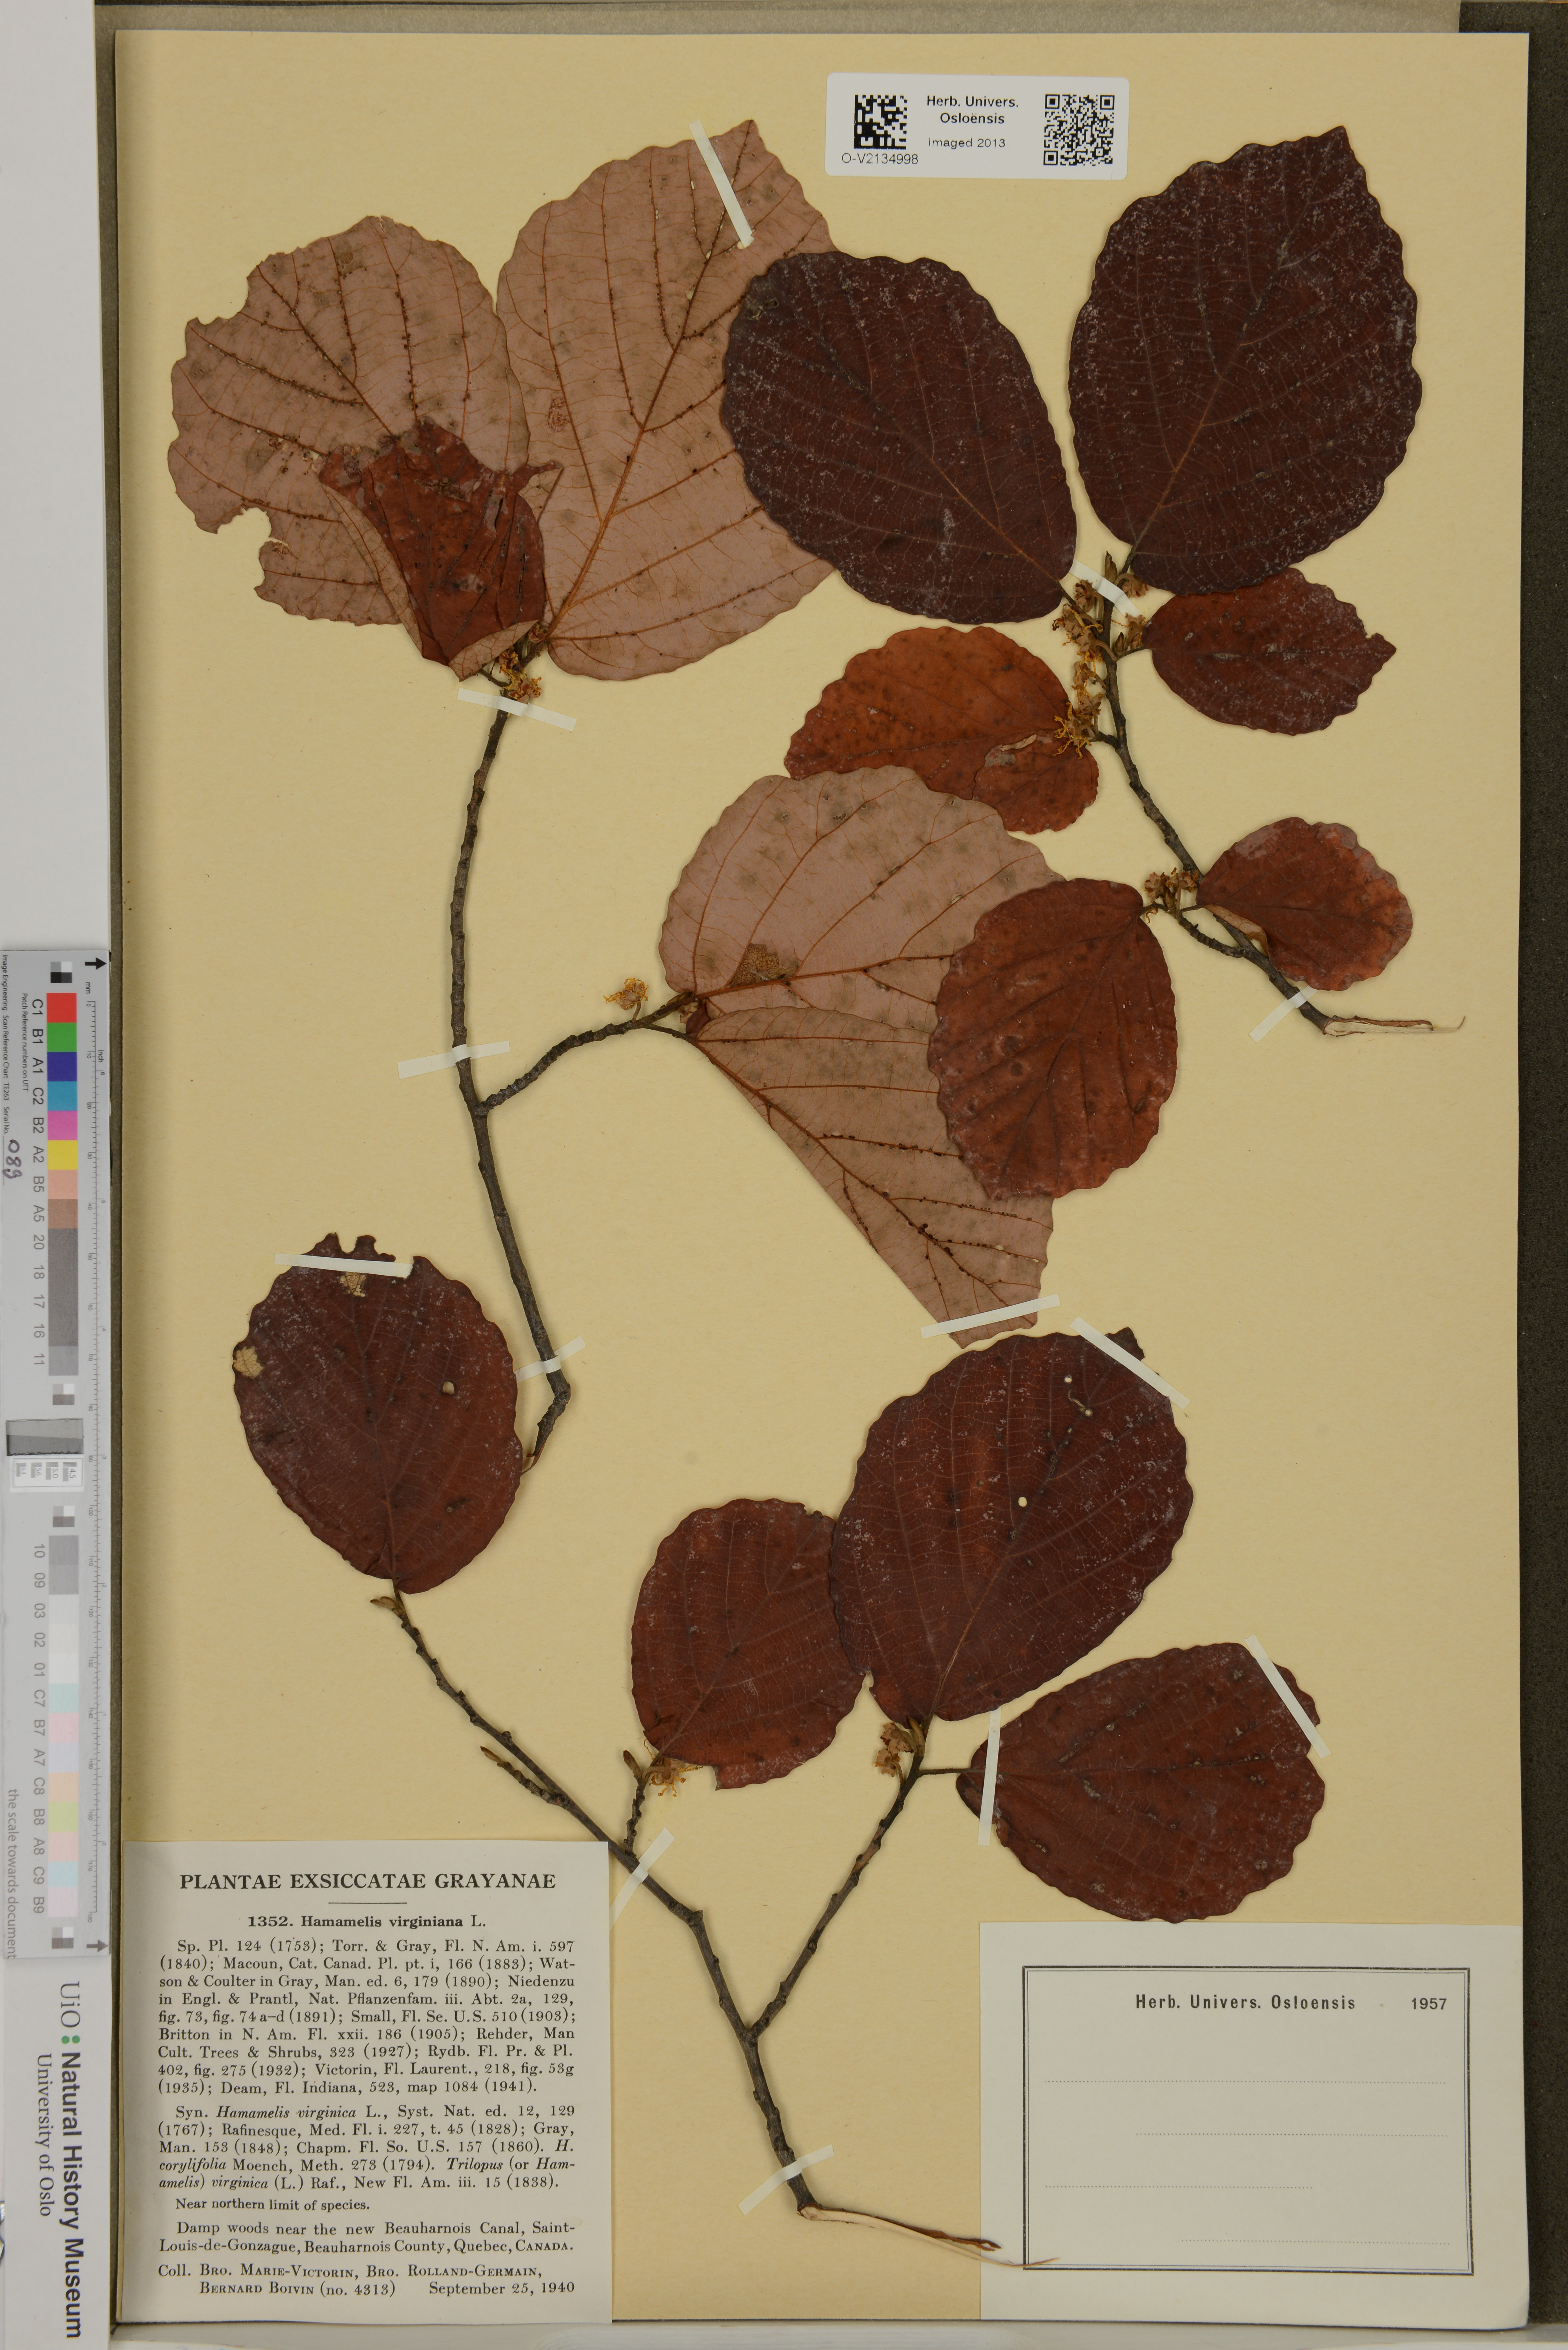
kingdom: Plantae
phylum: Tracheophyta
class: Magnoliopsida
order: Saxifragales
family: Hamamelidaceae
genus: Hamamelis
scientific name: Hamamelis virginiana
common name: Witch-hazel
